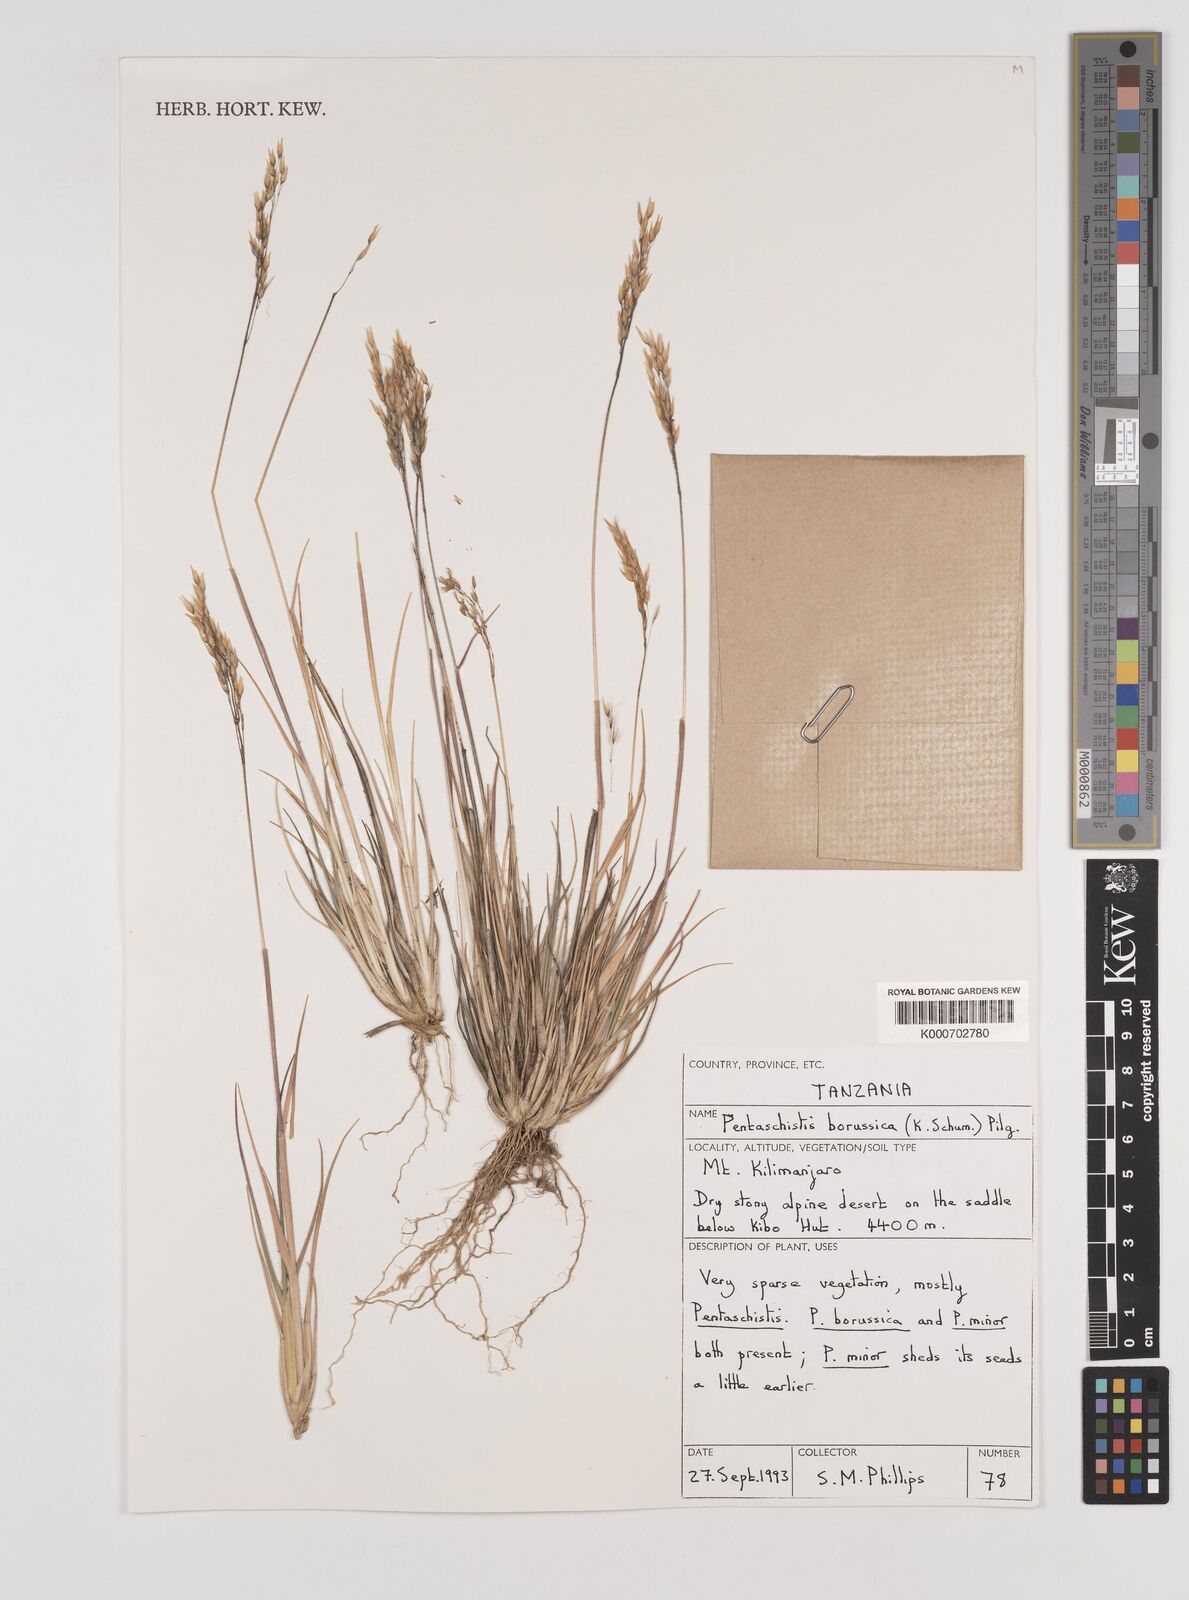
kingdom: Plantae
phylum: Tracheophyta
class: Liliopsida
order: Poales
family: Poaceae
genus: Pentameris
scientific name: Pentameris borussica
